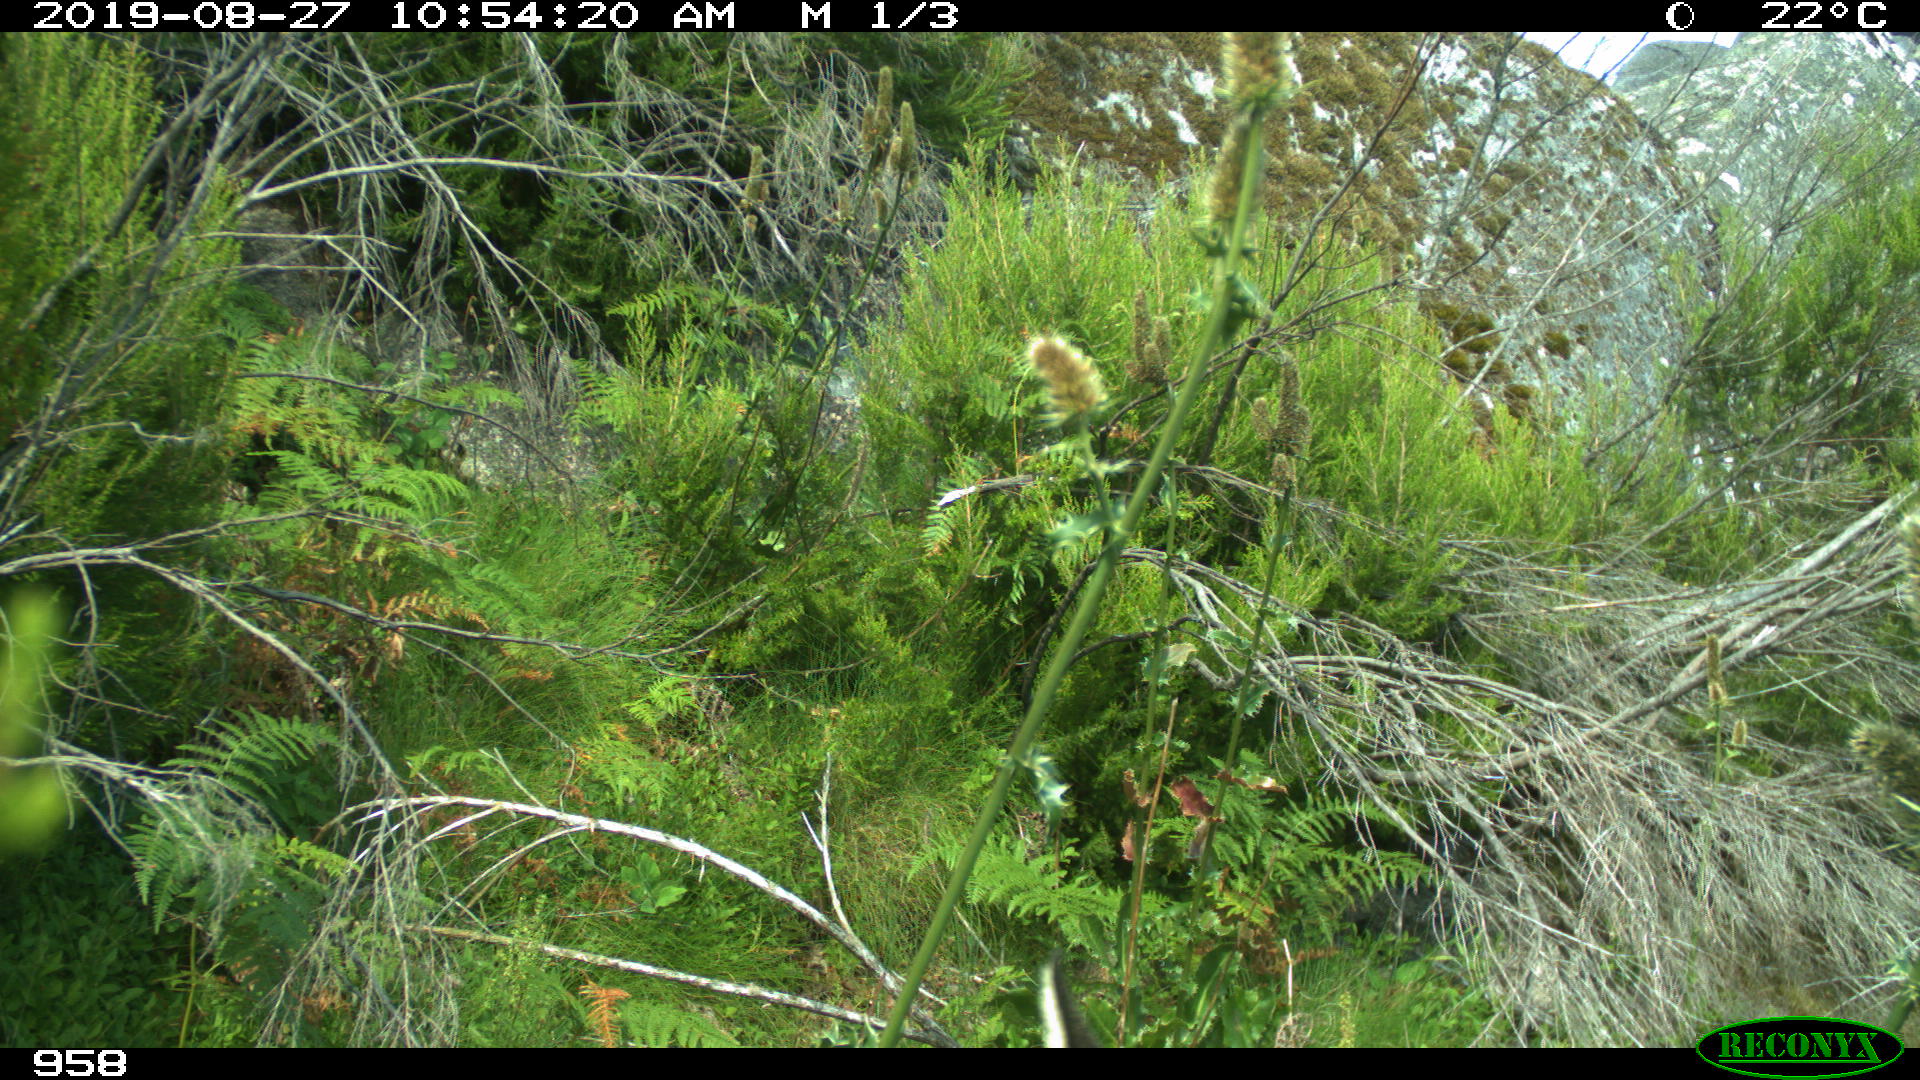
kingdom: Animalia
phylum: Chordata
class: Mammalia
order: Artiodactyla
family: Cervidae
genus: Capreolus
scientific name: Capreolus capreolus
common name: Western roe deer
